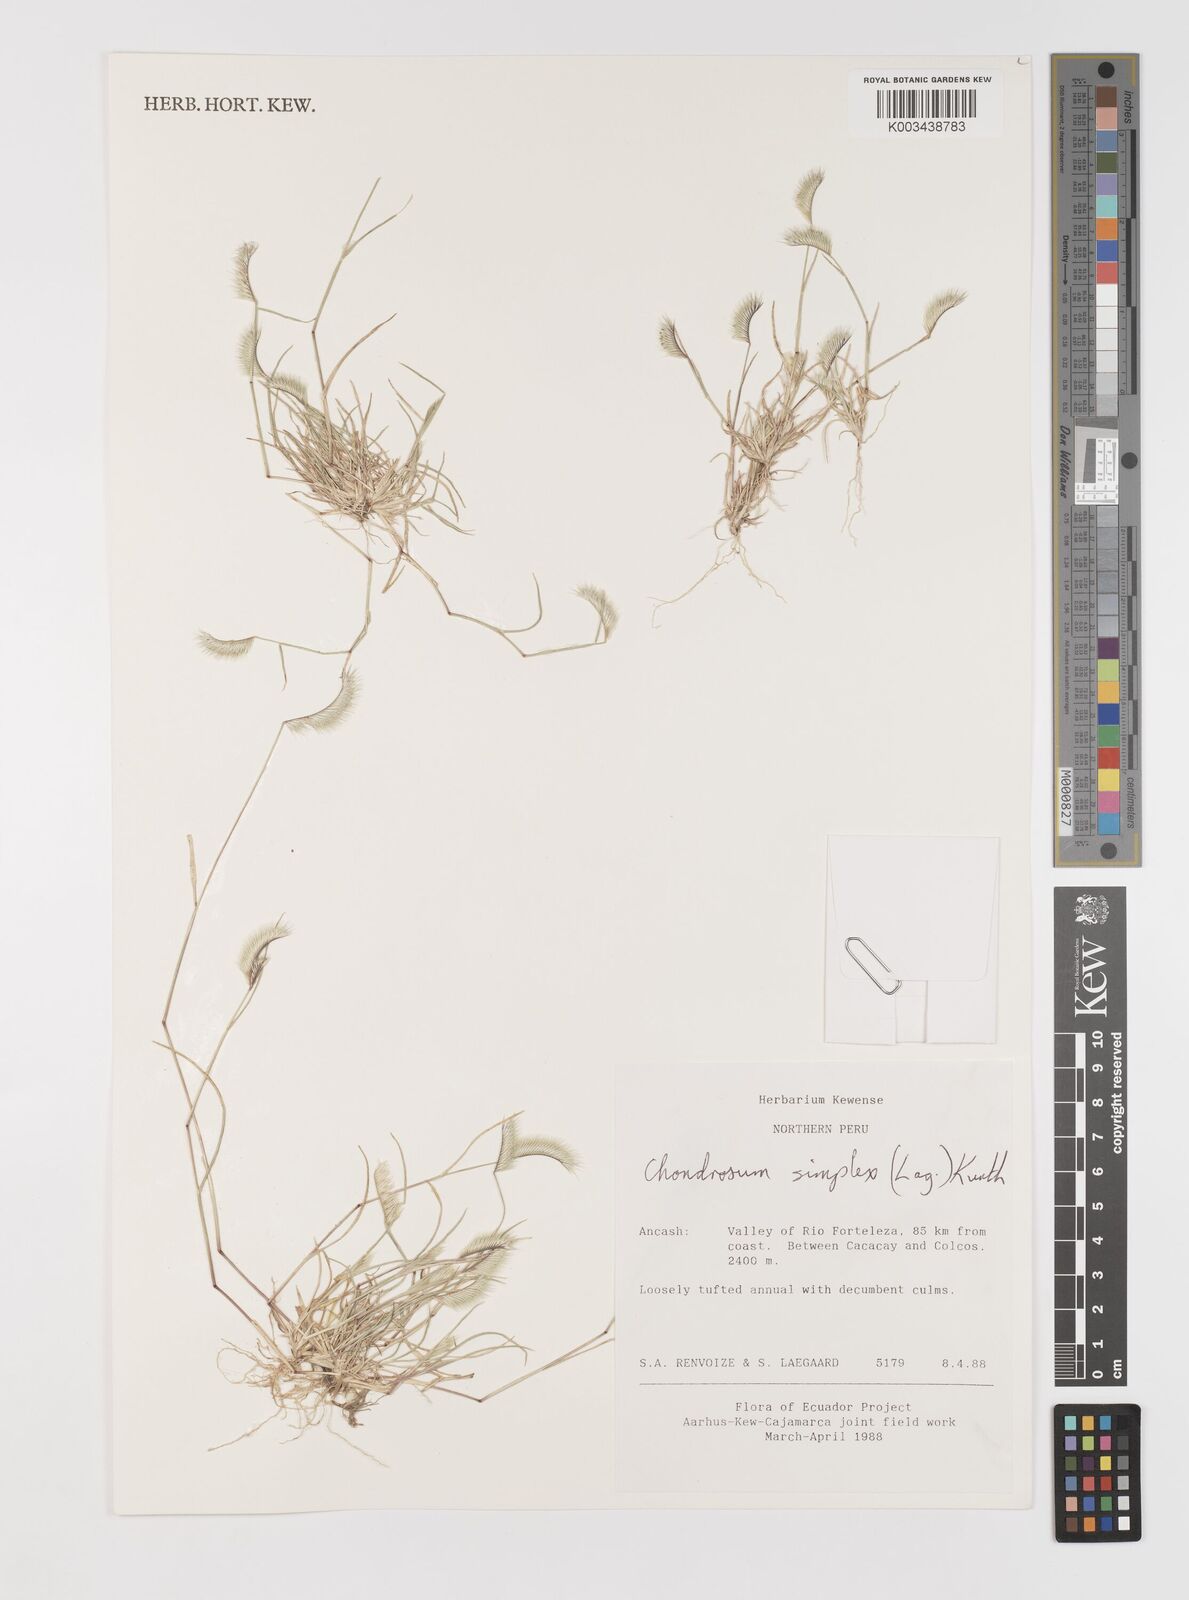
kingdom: Plantae
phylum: Tracheophyta
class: Liliopsida
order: Poales
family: Poaceae
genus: Bouteloua
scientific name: Bouteloua simplex
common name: Mat grama
